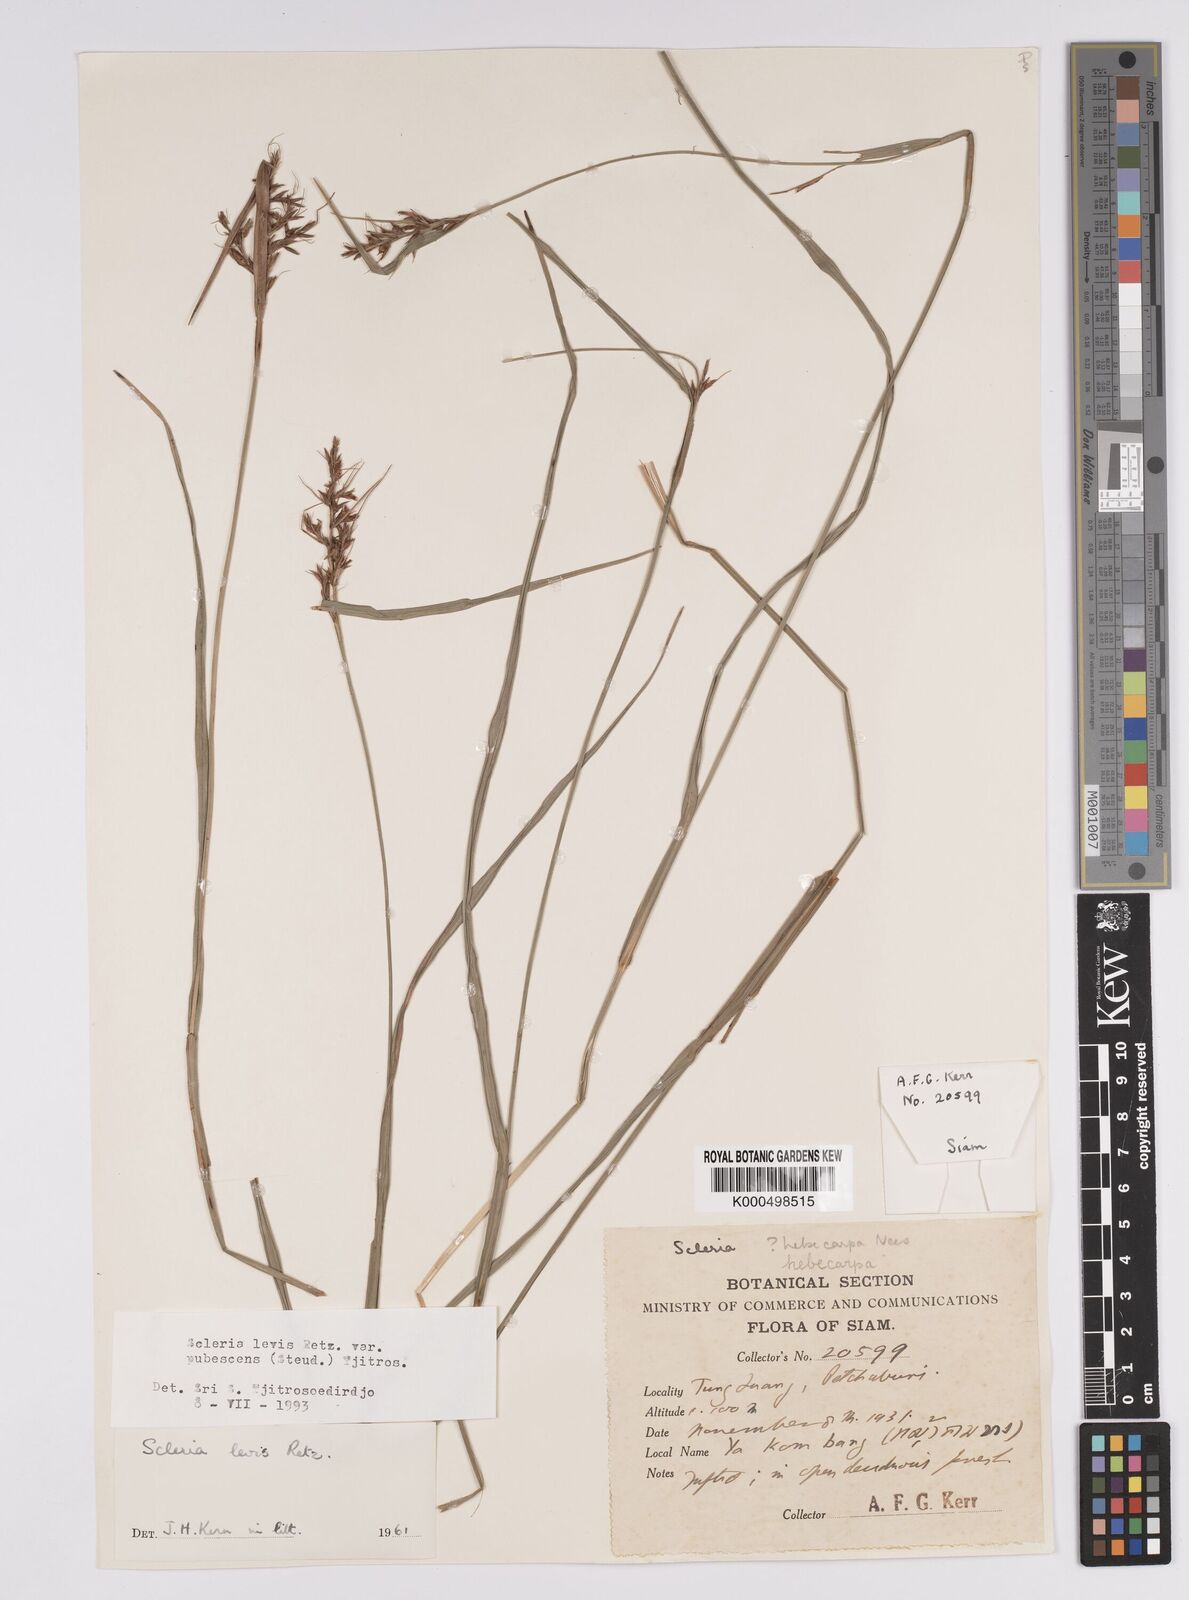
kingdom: Plantae
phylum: Tracheophyta
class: Liliopsida
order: Poales
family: Cyperaceae
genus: Scleria
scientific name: Scleria levis
